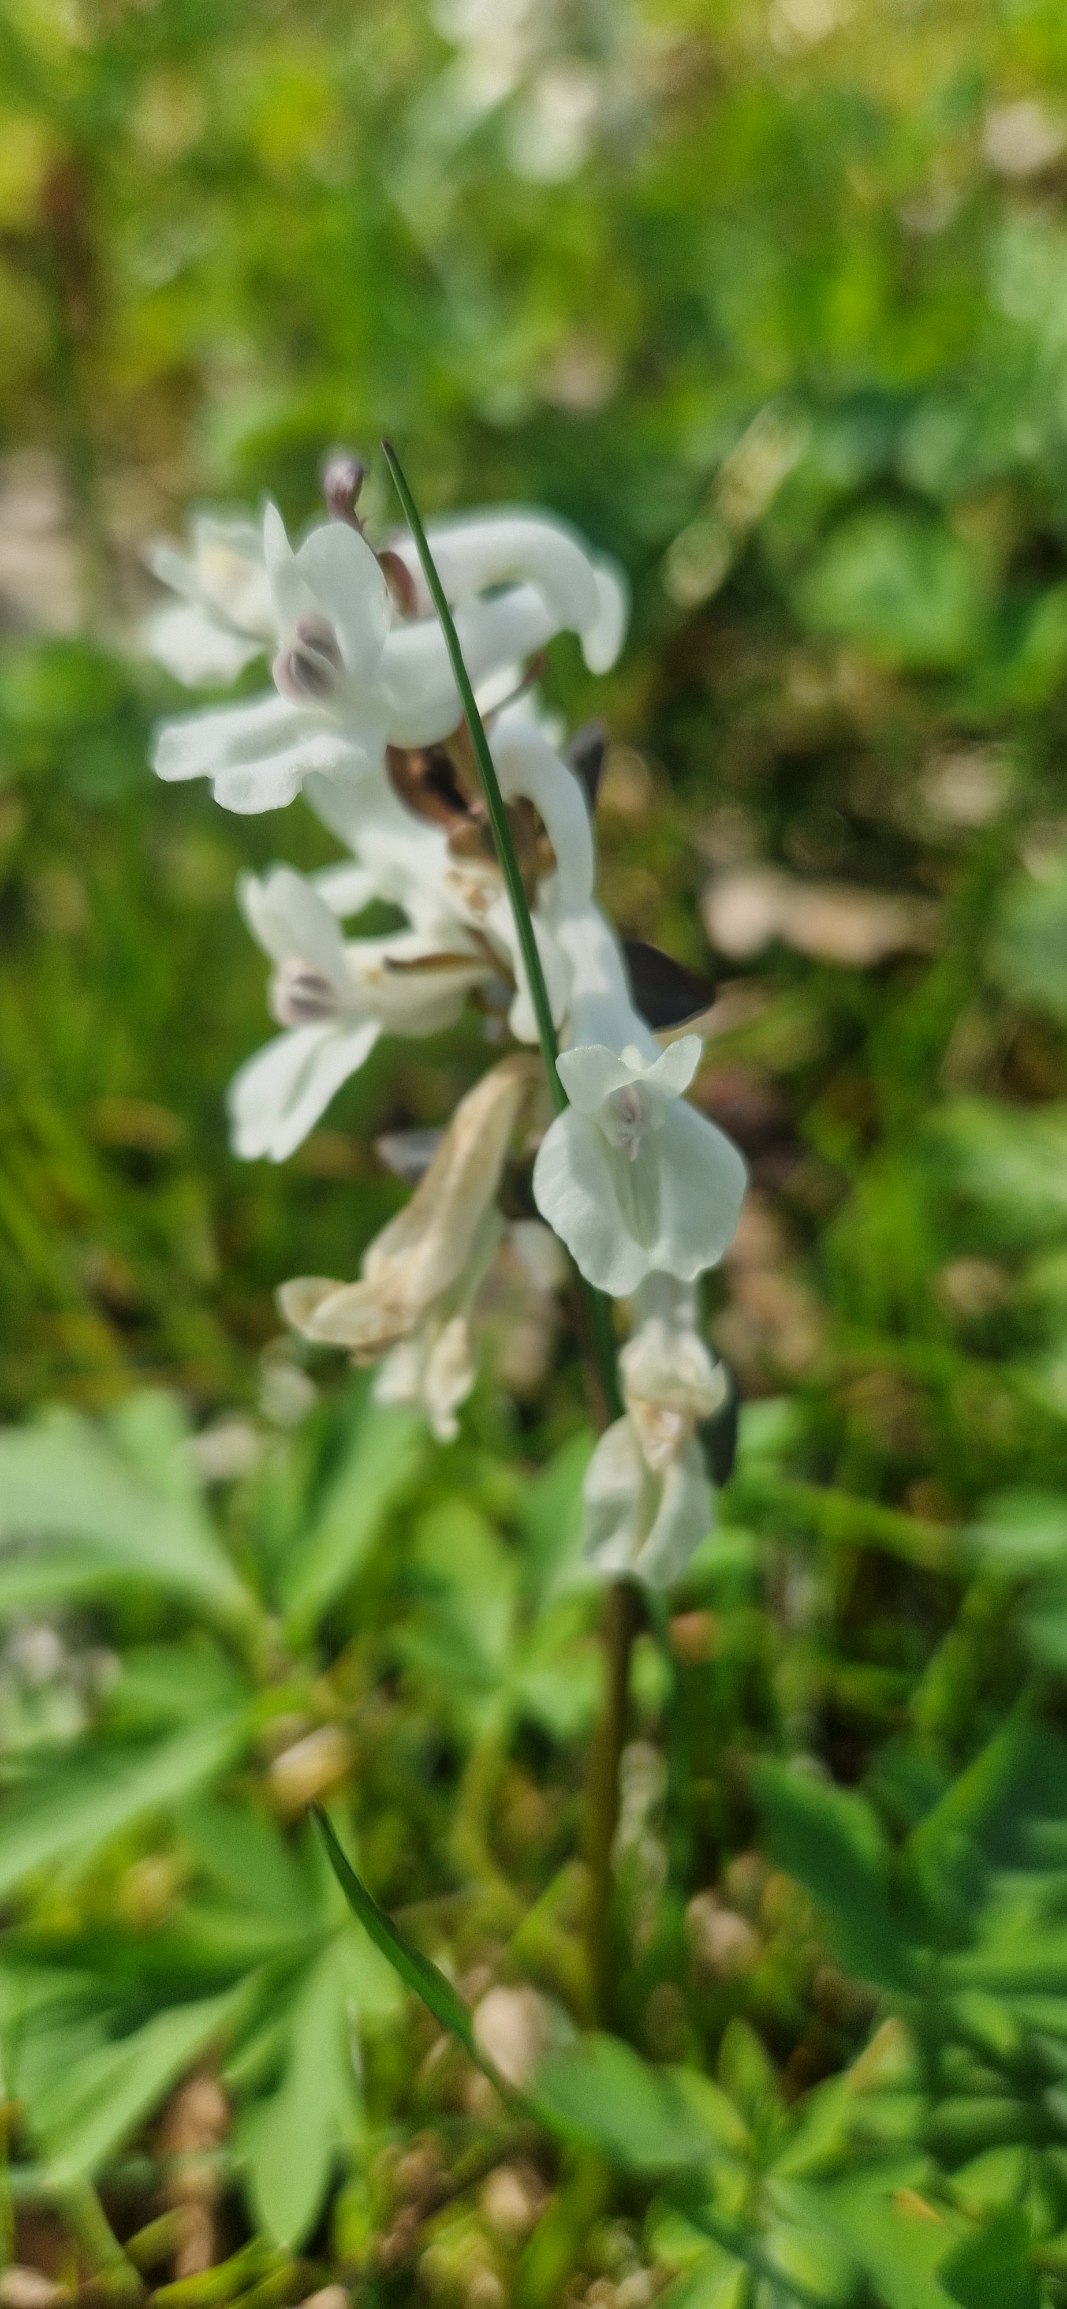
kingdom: Plantae
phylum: Tracheophyta
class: Magnoliopsida
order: Ranunculales
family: Papaveraceae
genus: Corydalis
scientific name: Corydalis cava
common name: Hulrodet lærkespore
